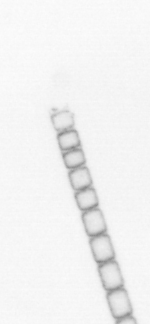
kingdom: Chromista
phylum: Ochrophyta
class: Bacillariophyceae
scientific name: Bacillariophyceae
